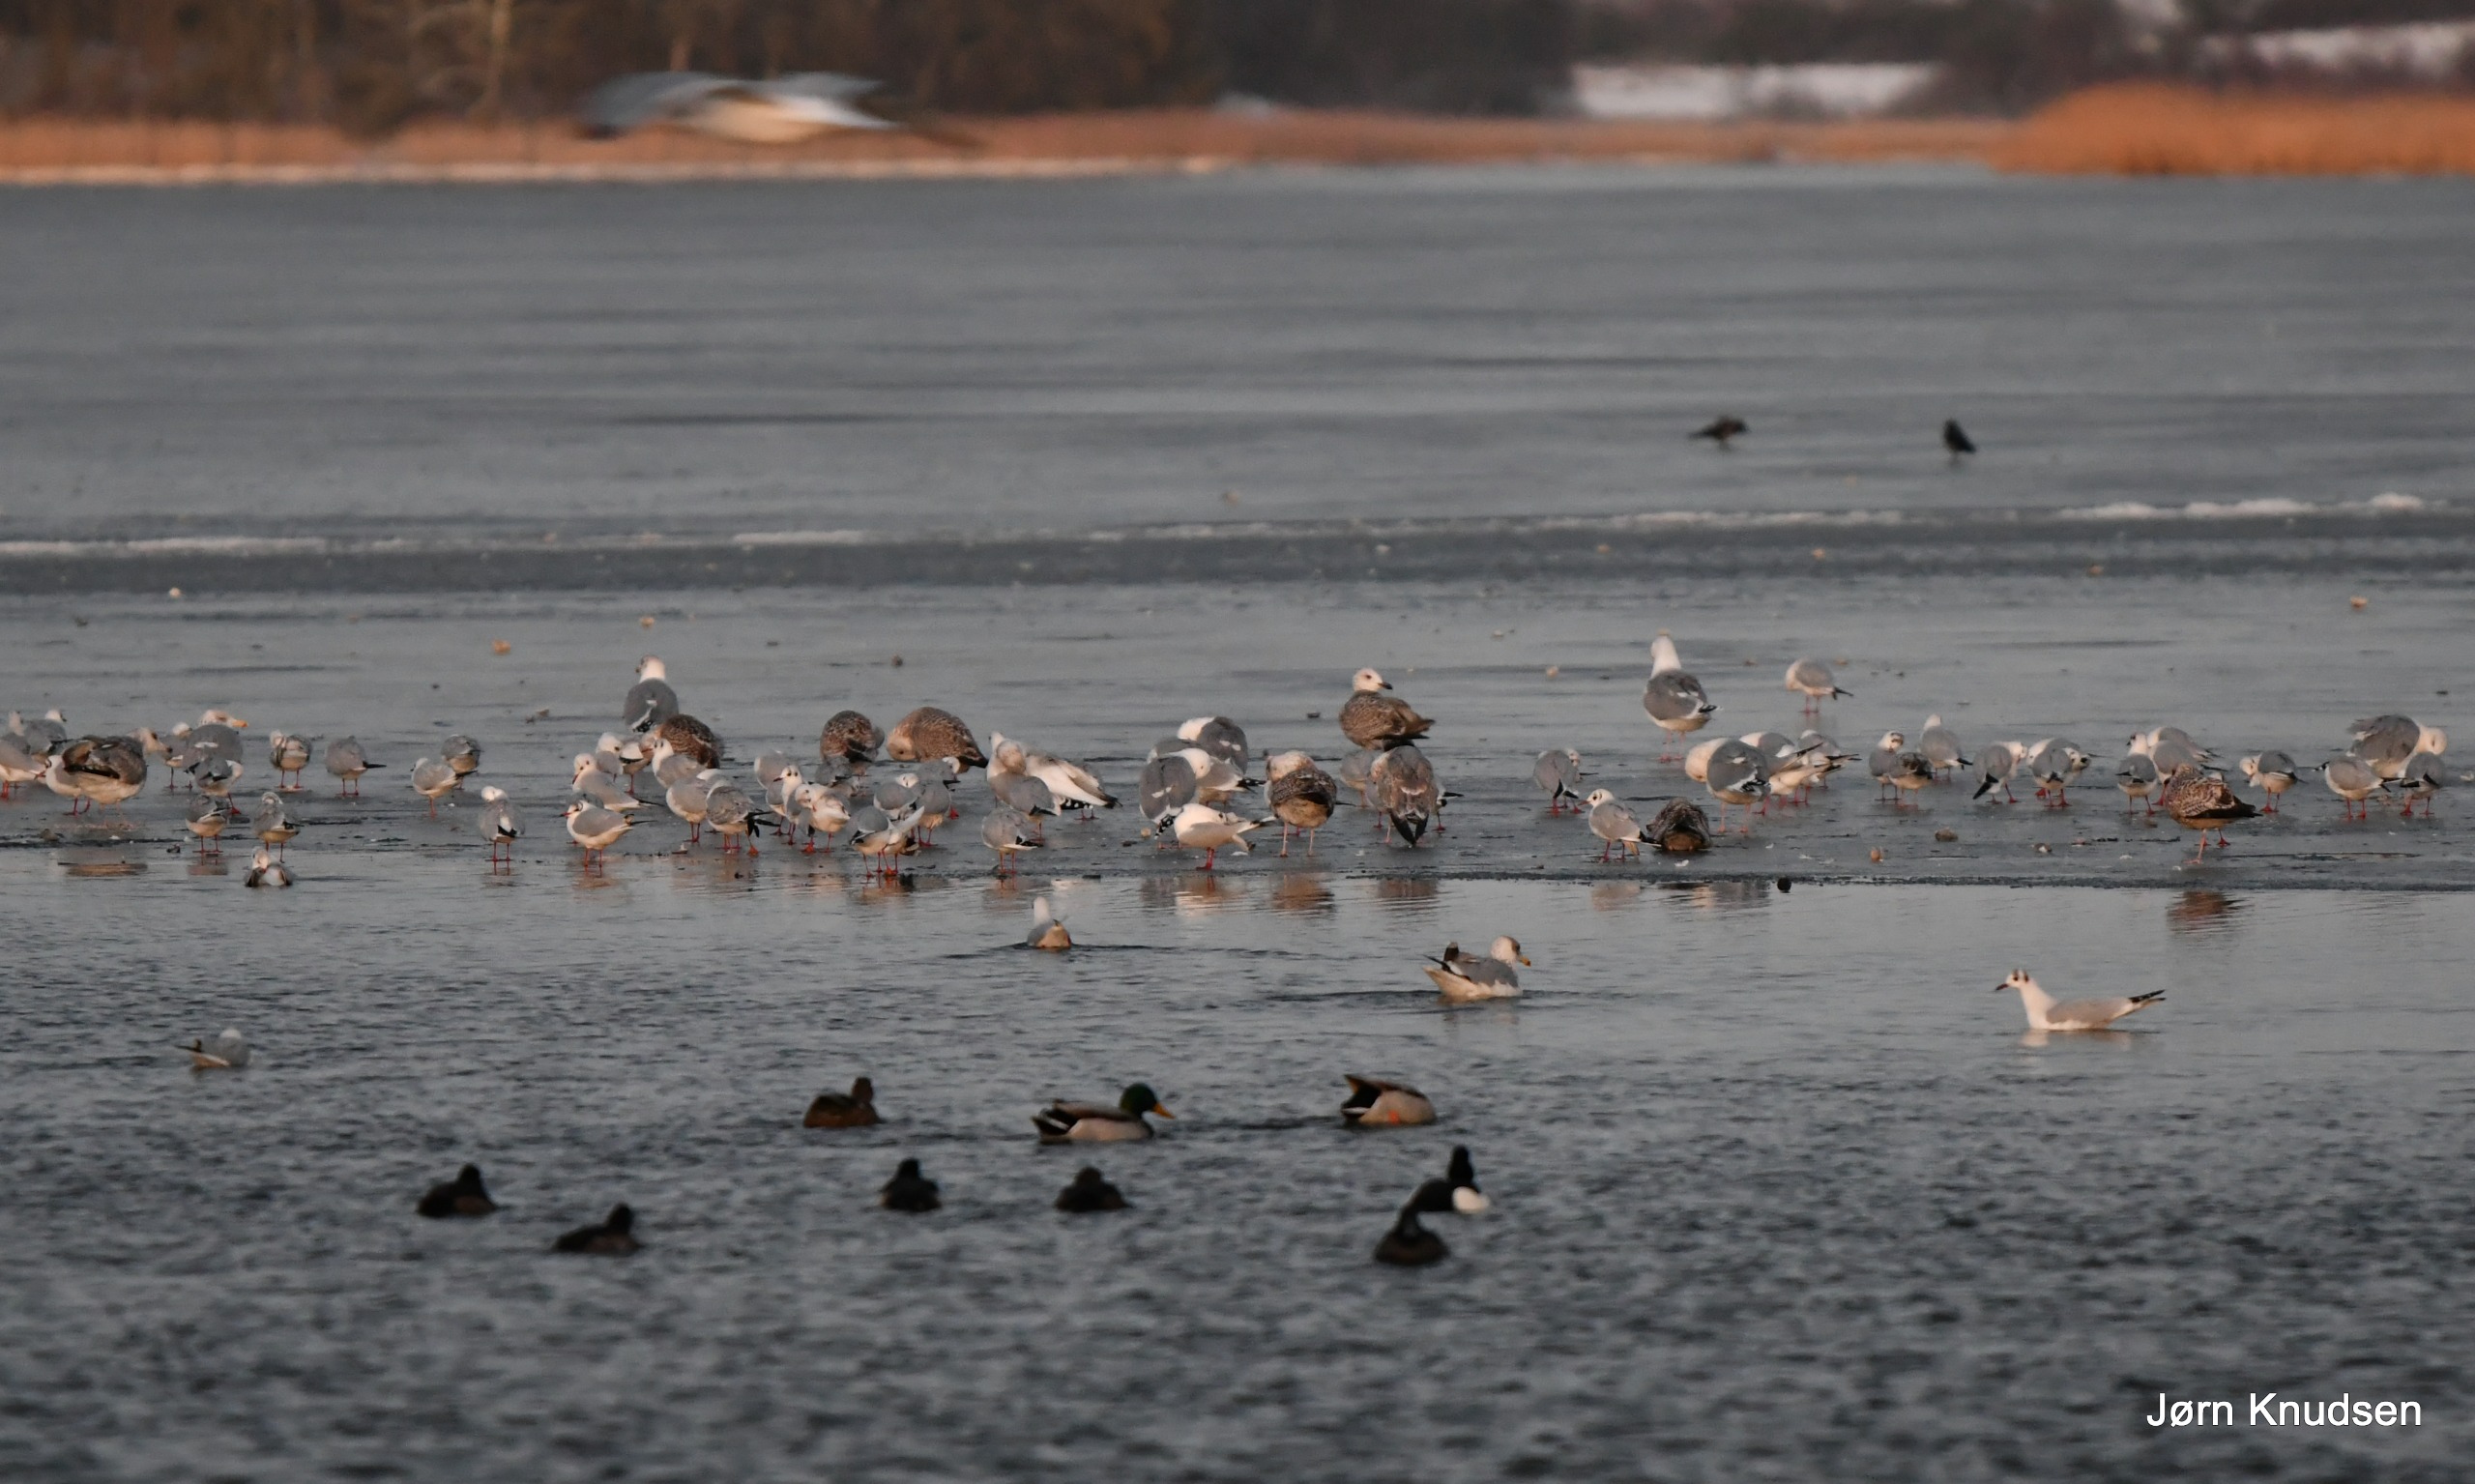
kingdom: Animalia
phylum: Chordata
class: Aves
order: Anseriformes
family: Anatidae
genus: Anas
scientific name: Anas platyrhynchos
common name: Gråand
